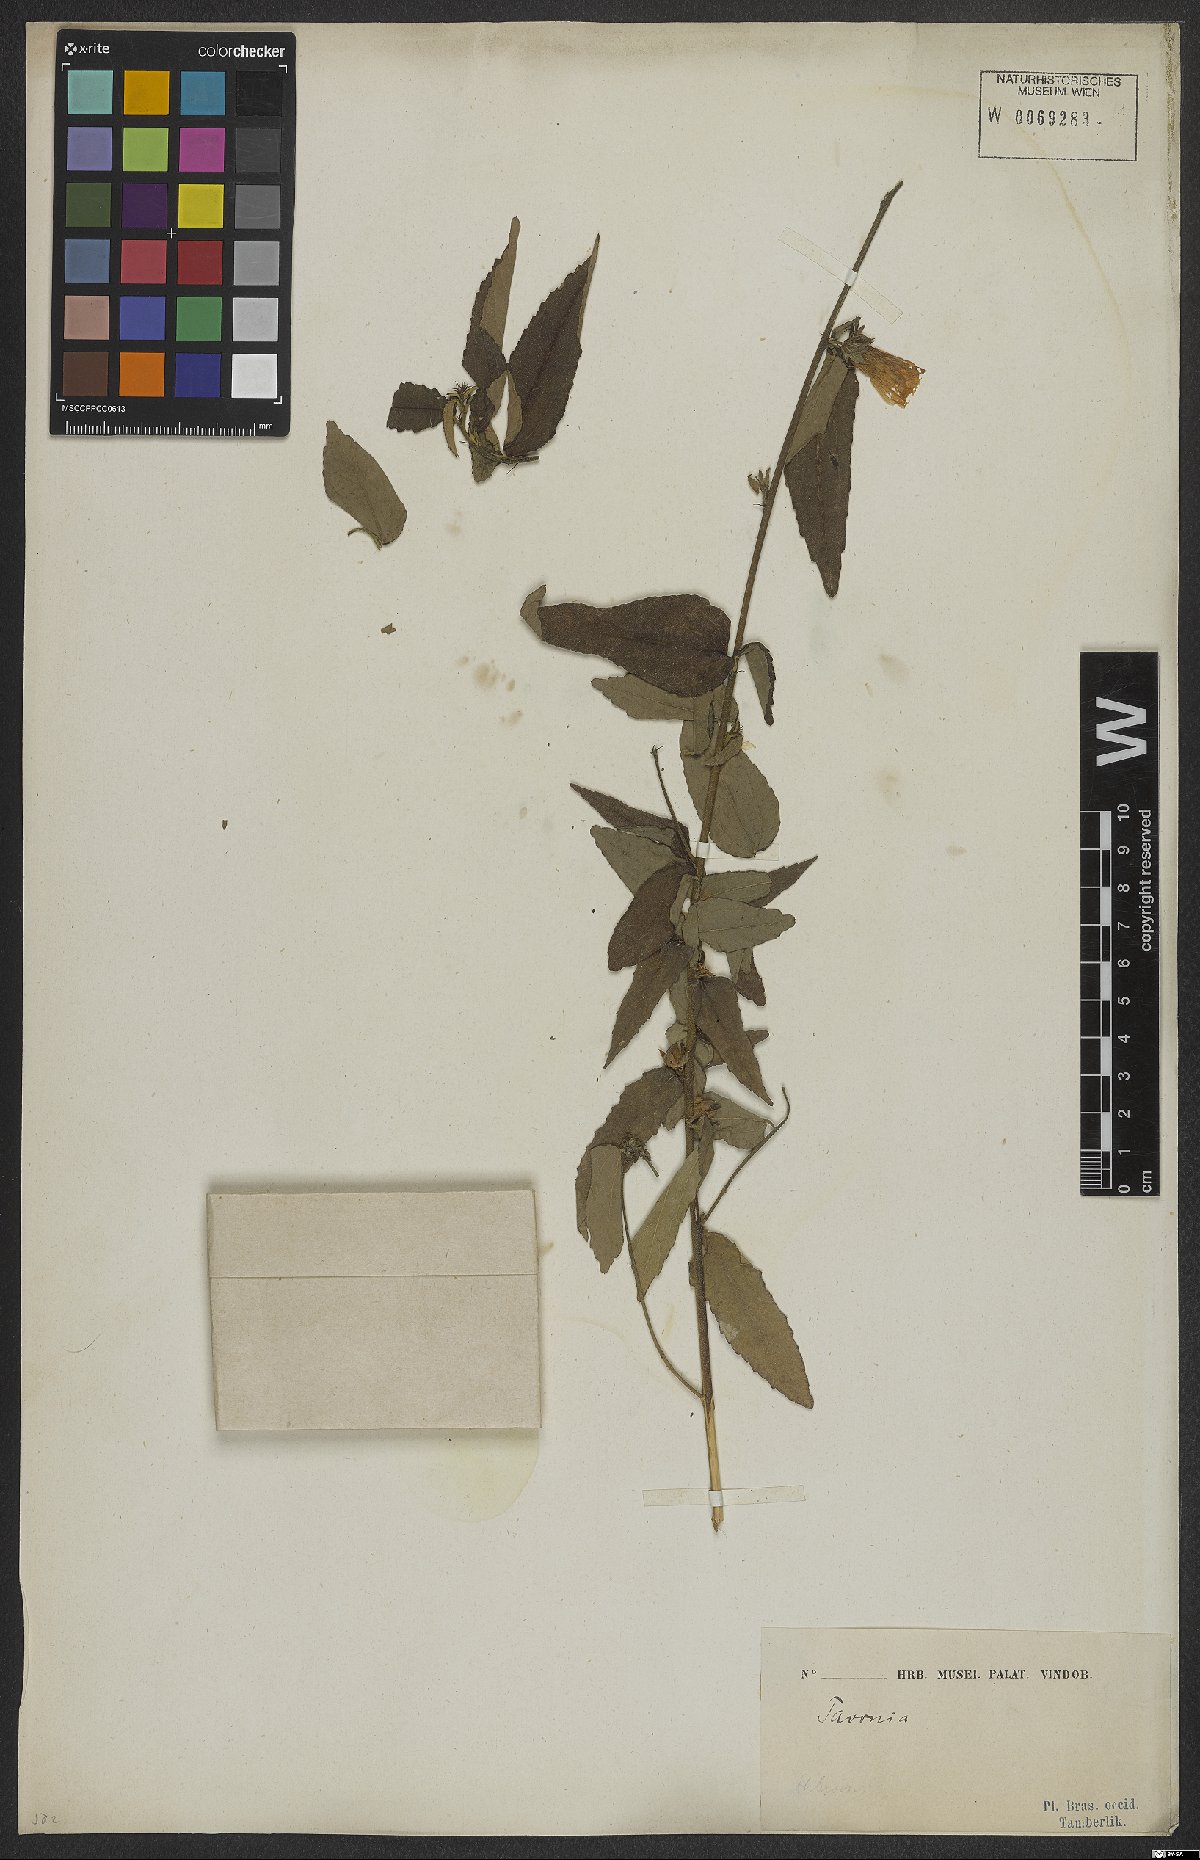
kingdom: Plantae
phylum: Tracheophyta
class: Magnoliopsida
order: Malvales
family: Malvaceae
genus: Pavonia
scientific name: Pavonia
